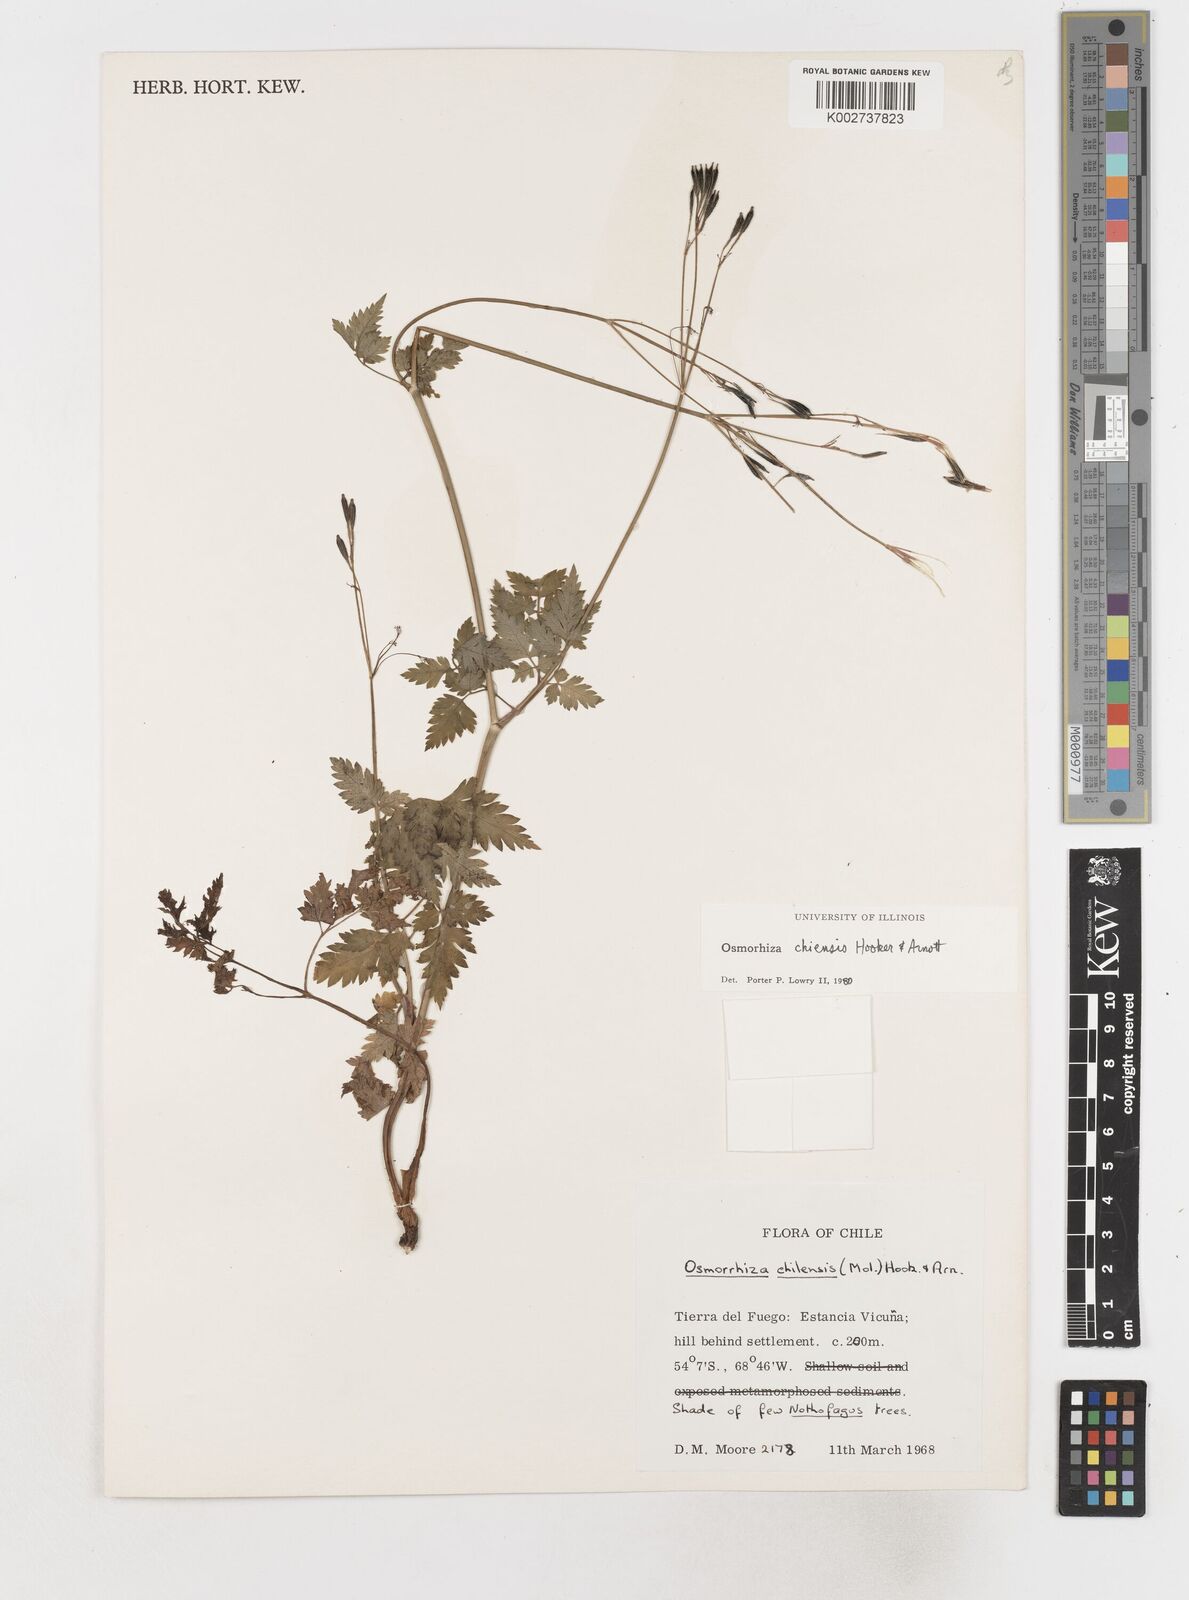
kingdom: Plantae
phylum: Tracheophyta
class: Magnoliopsida
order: Apiales
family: Apiaceae
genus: Osmorhiza
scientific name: Osmorhiza berteroi
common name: Mountain sweet cicely
